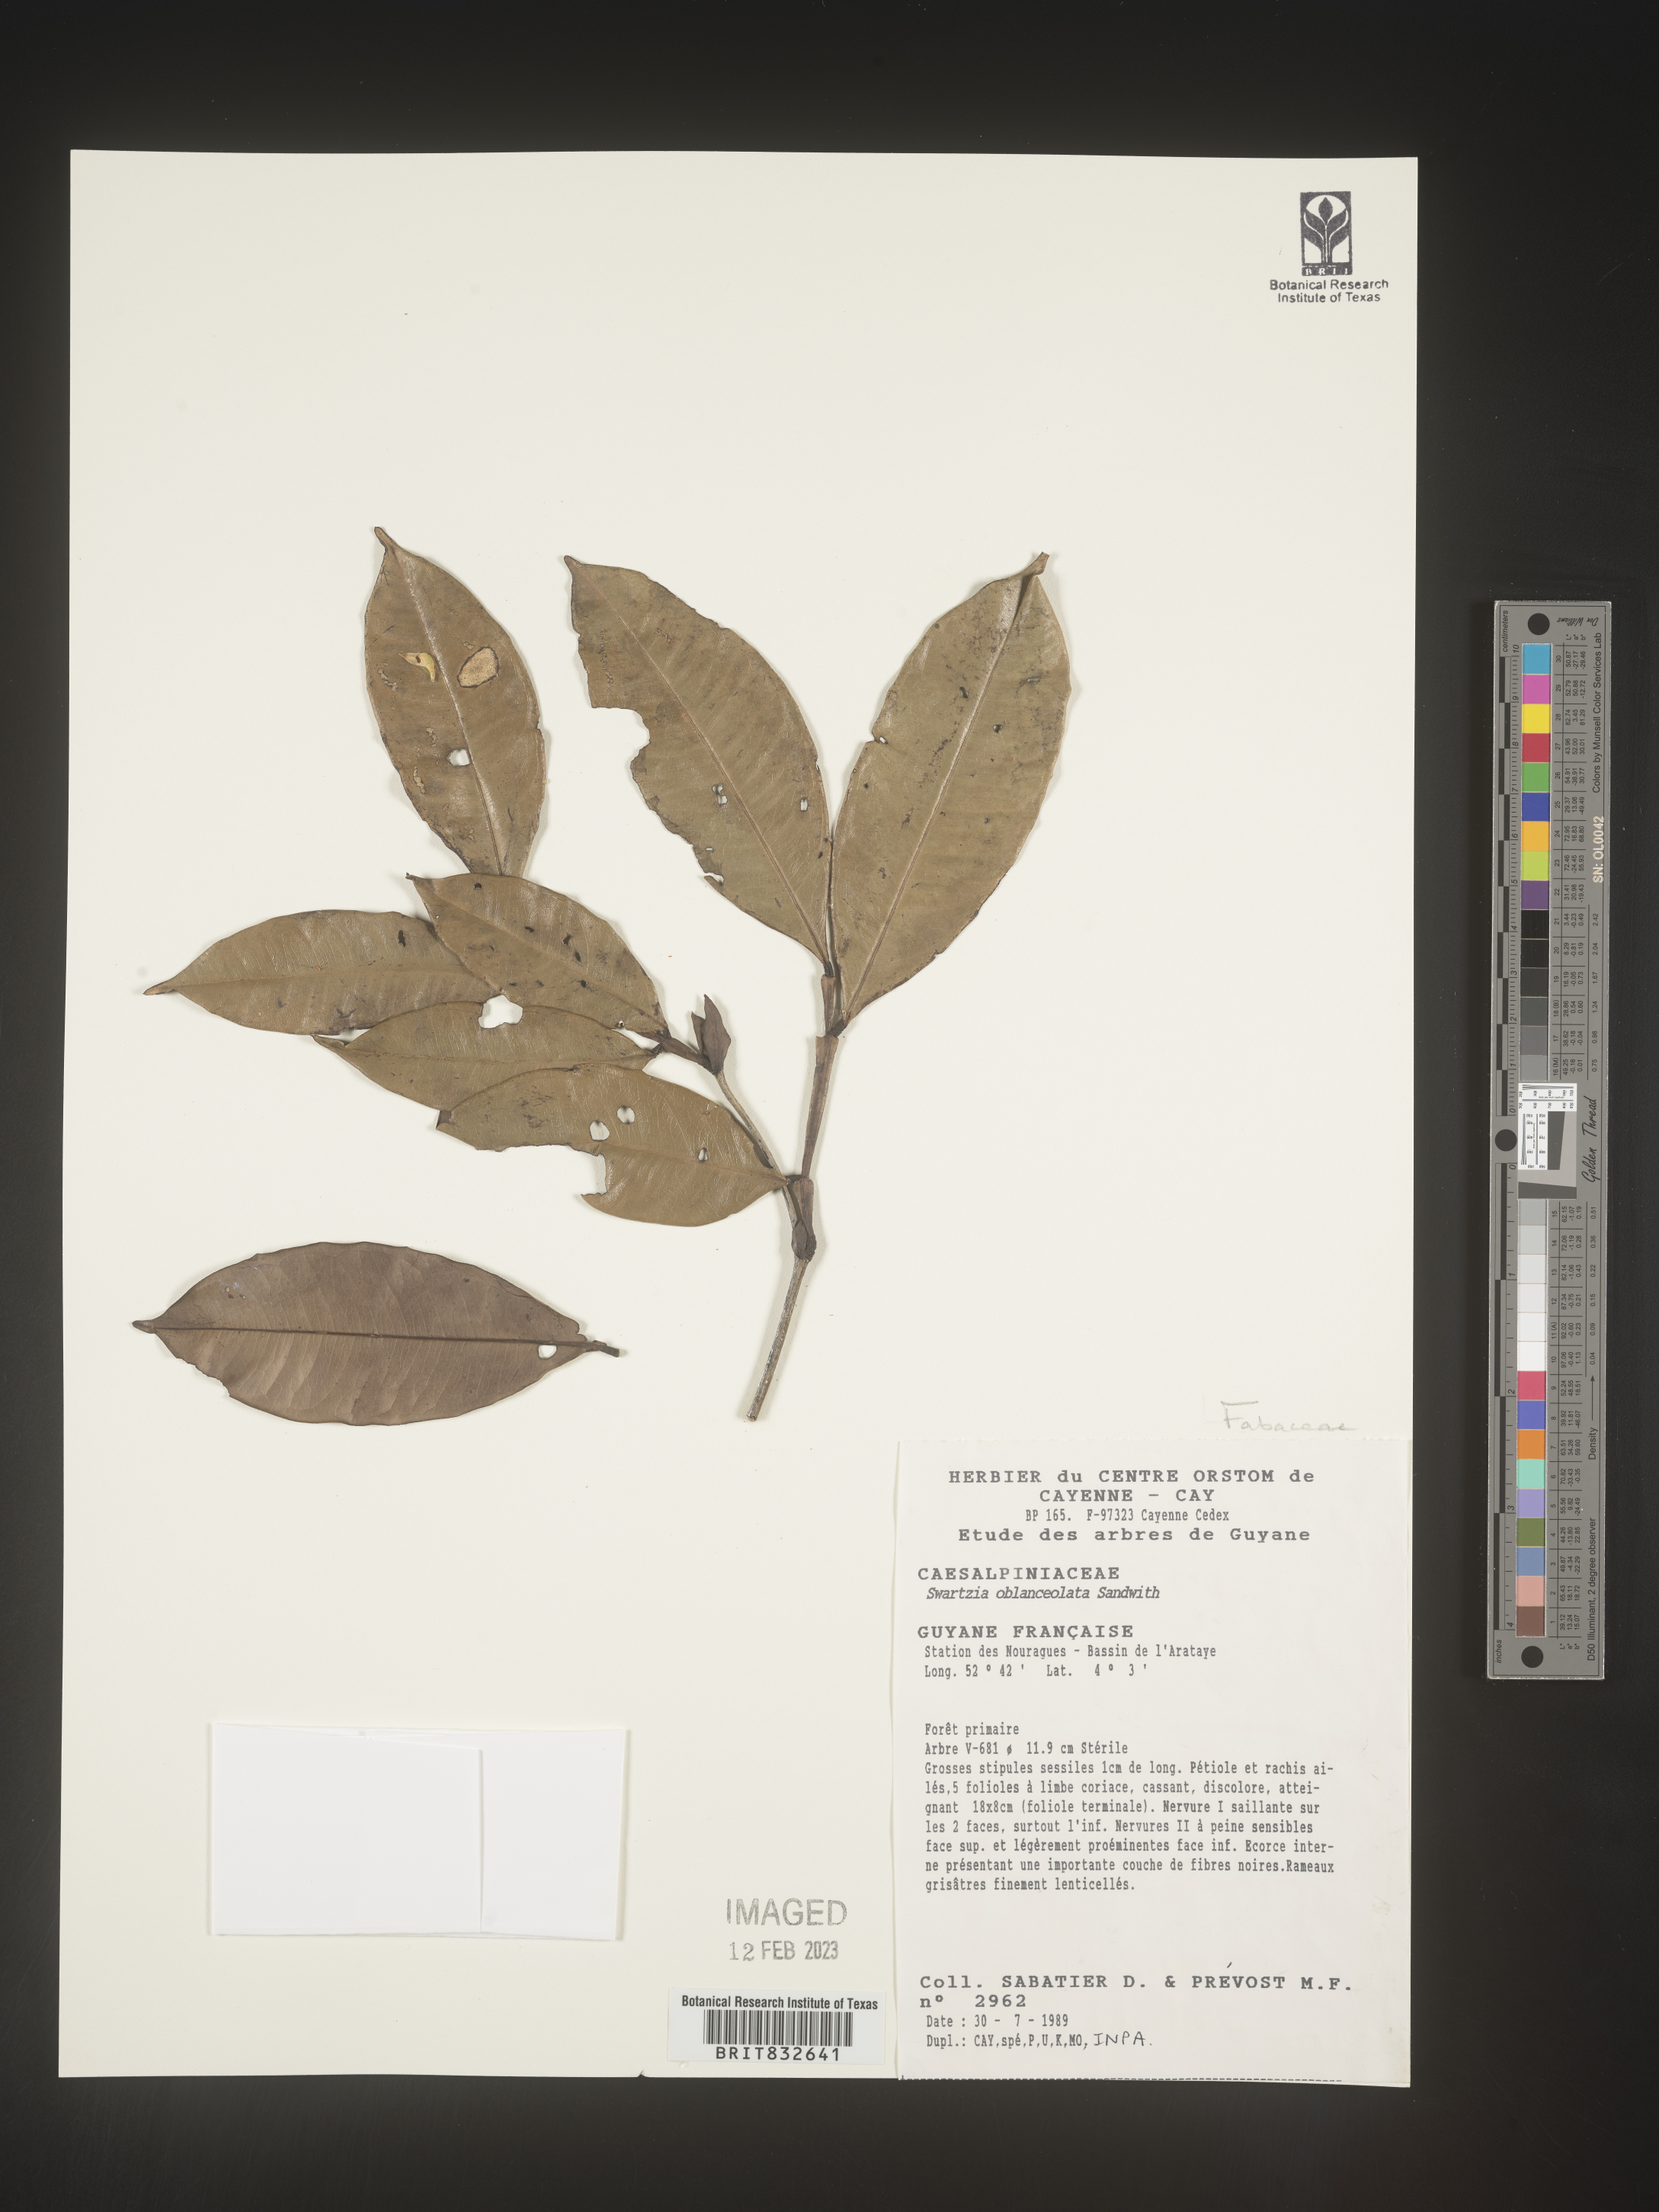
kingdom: Plantae
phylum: Tracheophyta
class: Magnoliopsida
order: Fabales
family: Fabaceae
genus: Swartzia
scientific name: Swartzia
